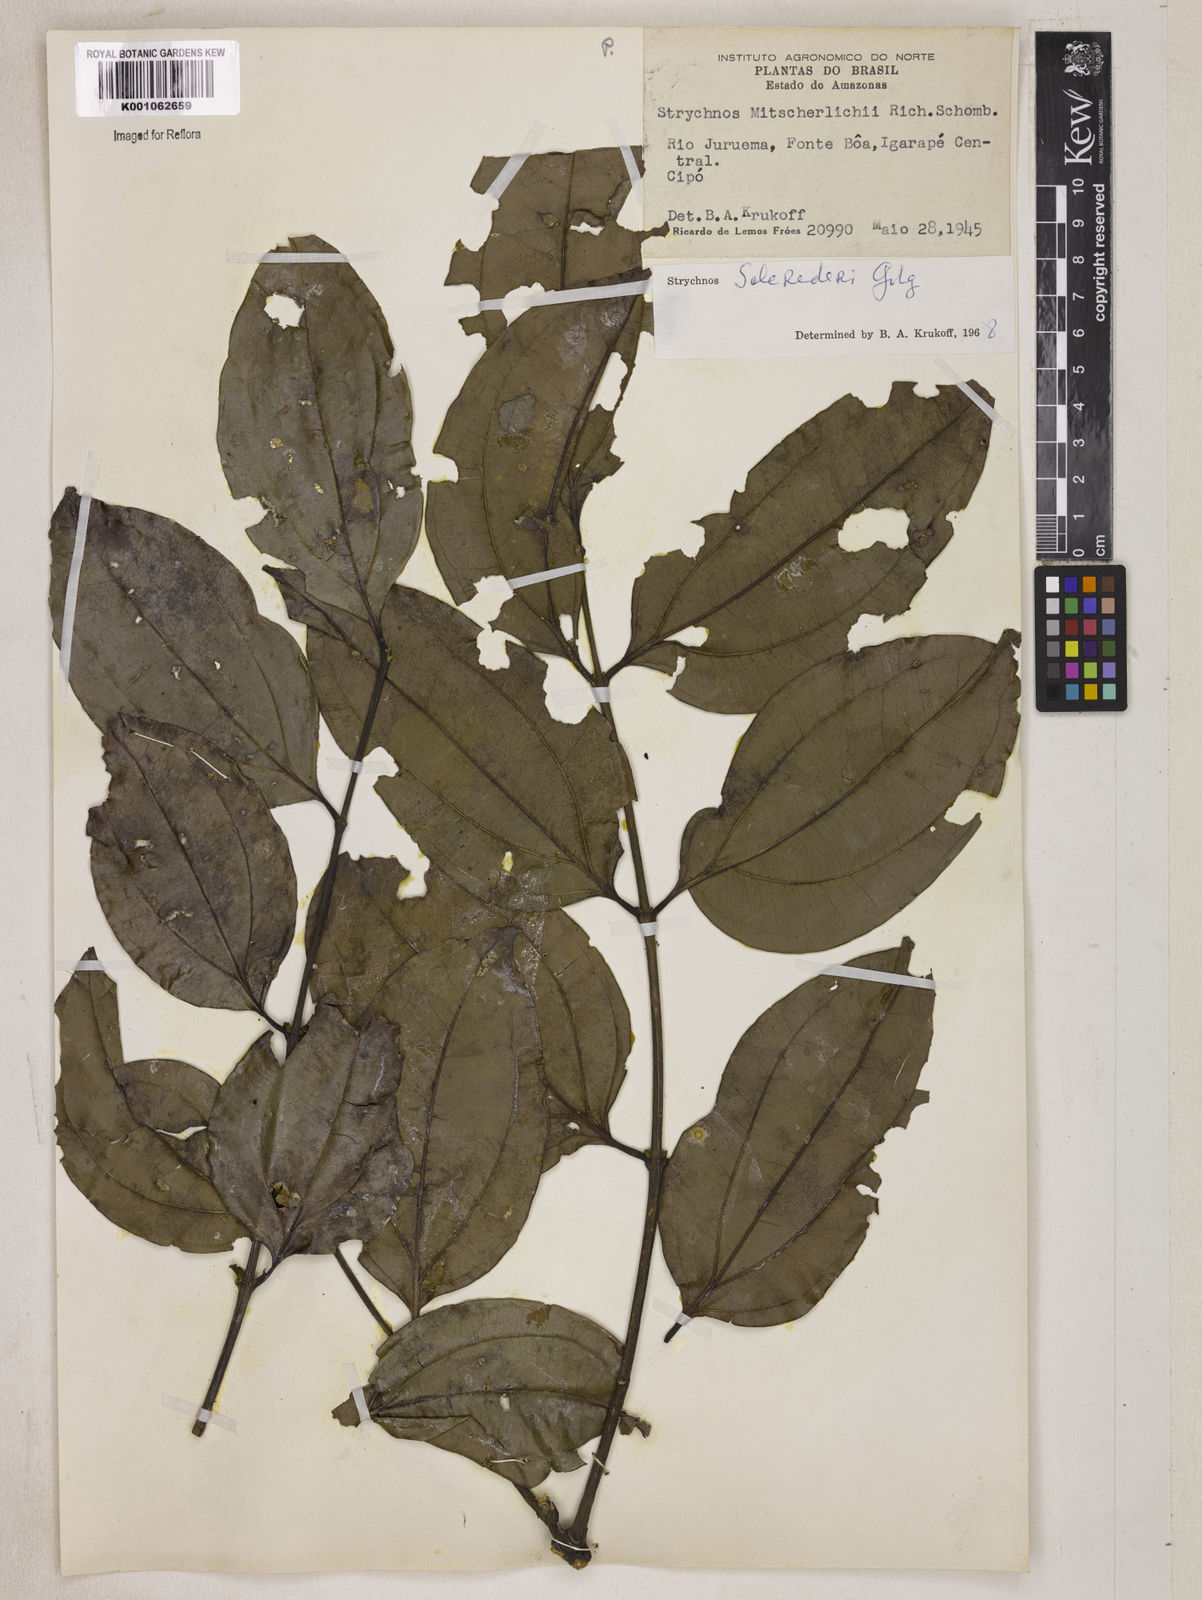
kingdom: Plantae
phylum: Tracheophyta
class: Magnoliopsida
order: Gentianales
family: Loganiaceae
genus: Strychnos
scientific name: Strychnos solerederi
